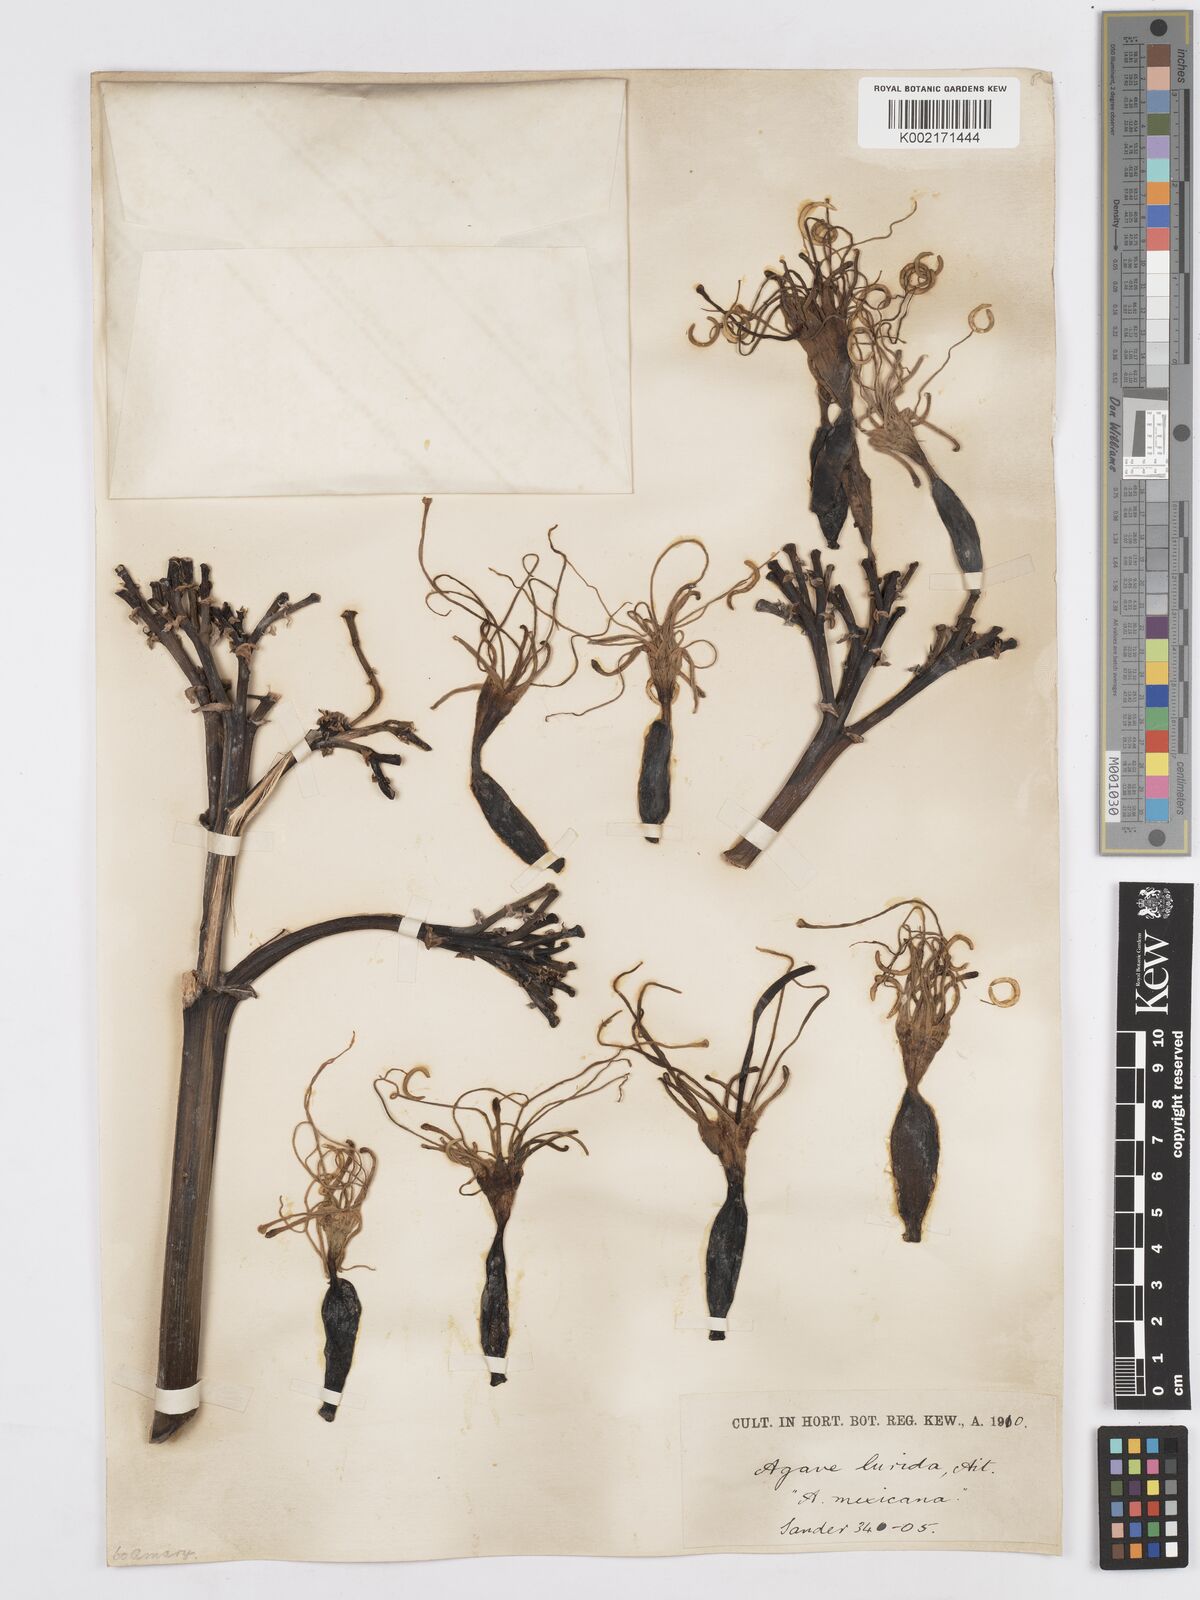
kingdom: Plantae
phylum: Tracheophyta
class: Liliopsida
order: Asparagales
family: Asparagaceae
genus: Agave
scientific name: Agave vera-cruz
